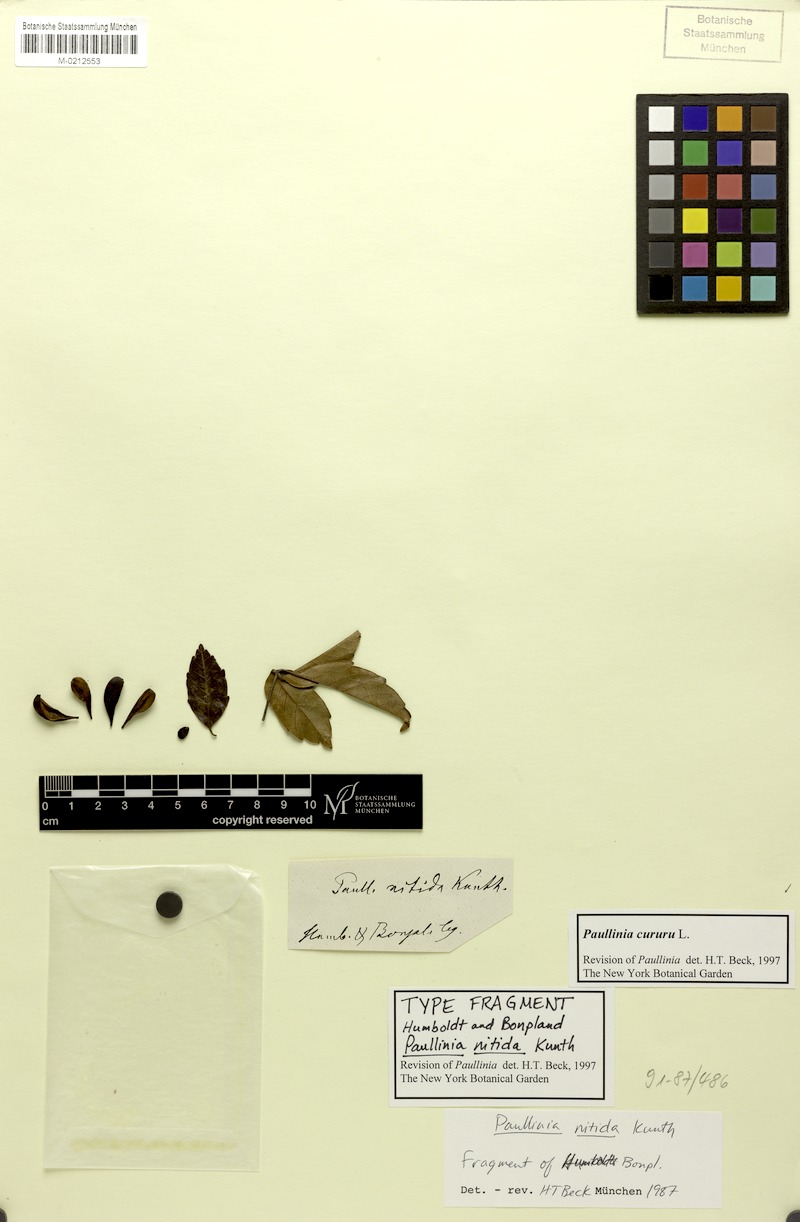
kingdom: Plantae
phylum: Tracheophyta
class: Magnoliopsida
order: Sapindales
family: Sapindaceae
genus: Paullinia
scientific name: Paullinia cururu
